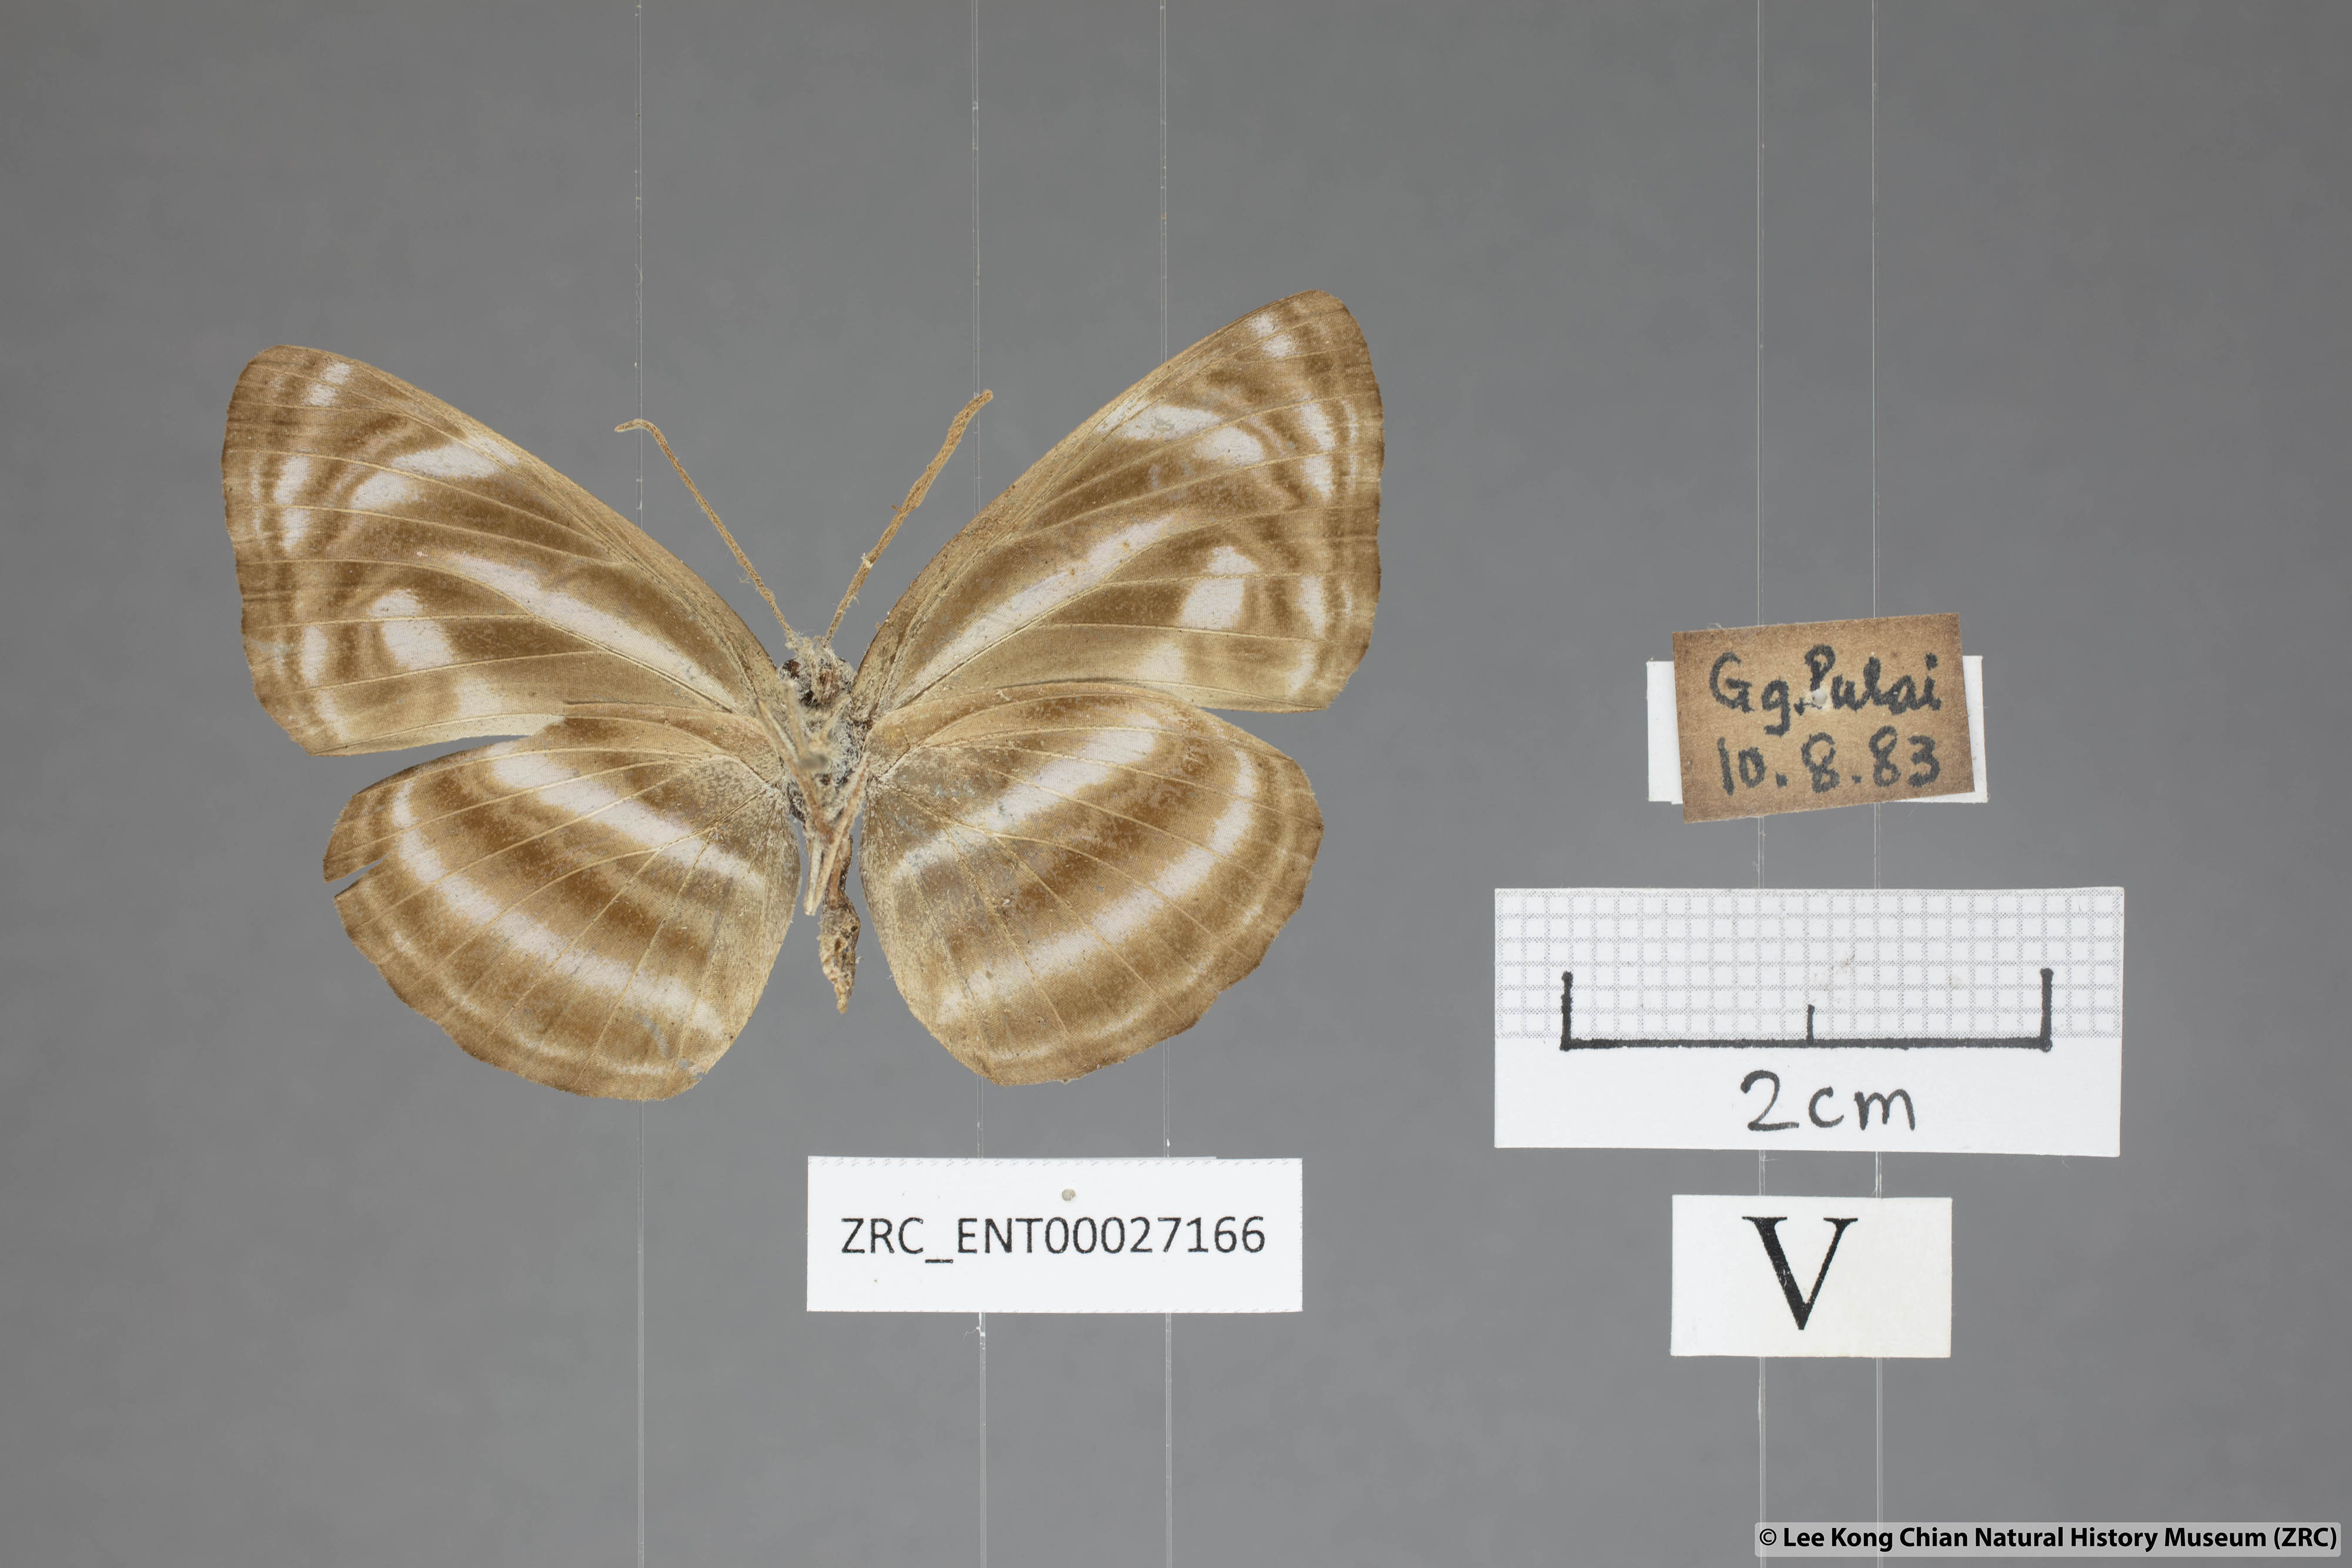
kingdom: Animalia
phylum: Arthropoda
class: Insecta
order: Lepidoptera
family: Nymphalidae
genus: Neptis
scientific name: Neptis omeroda
